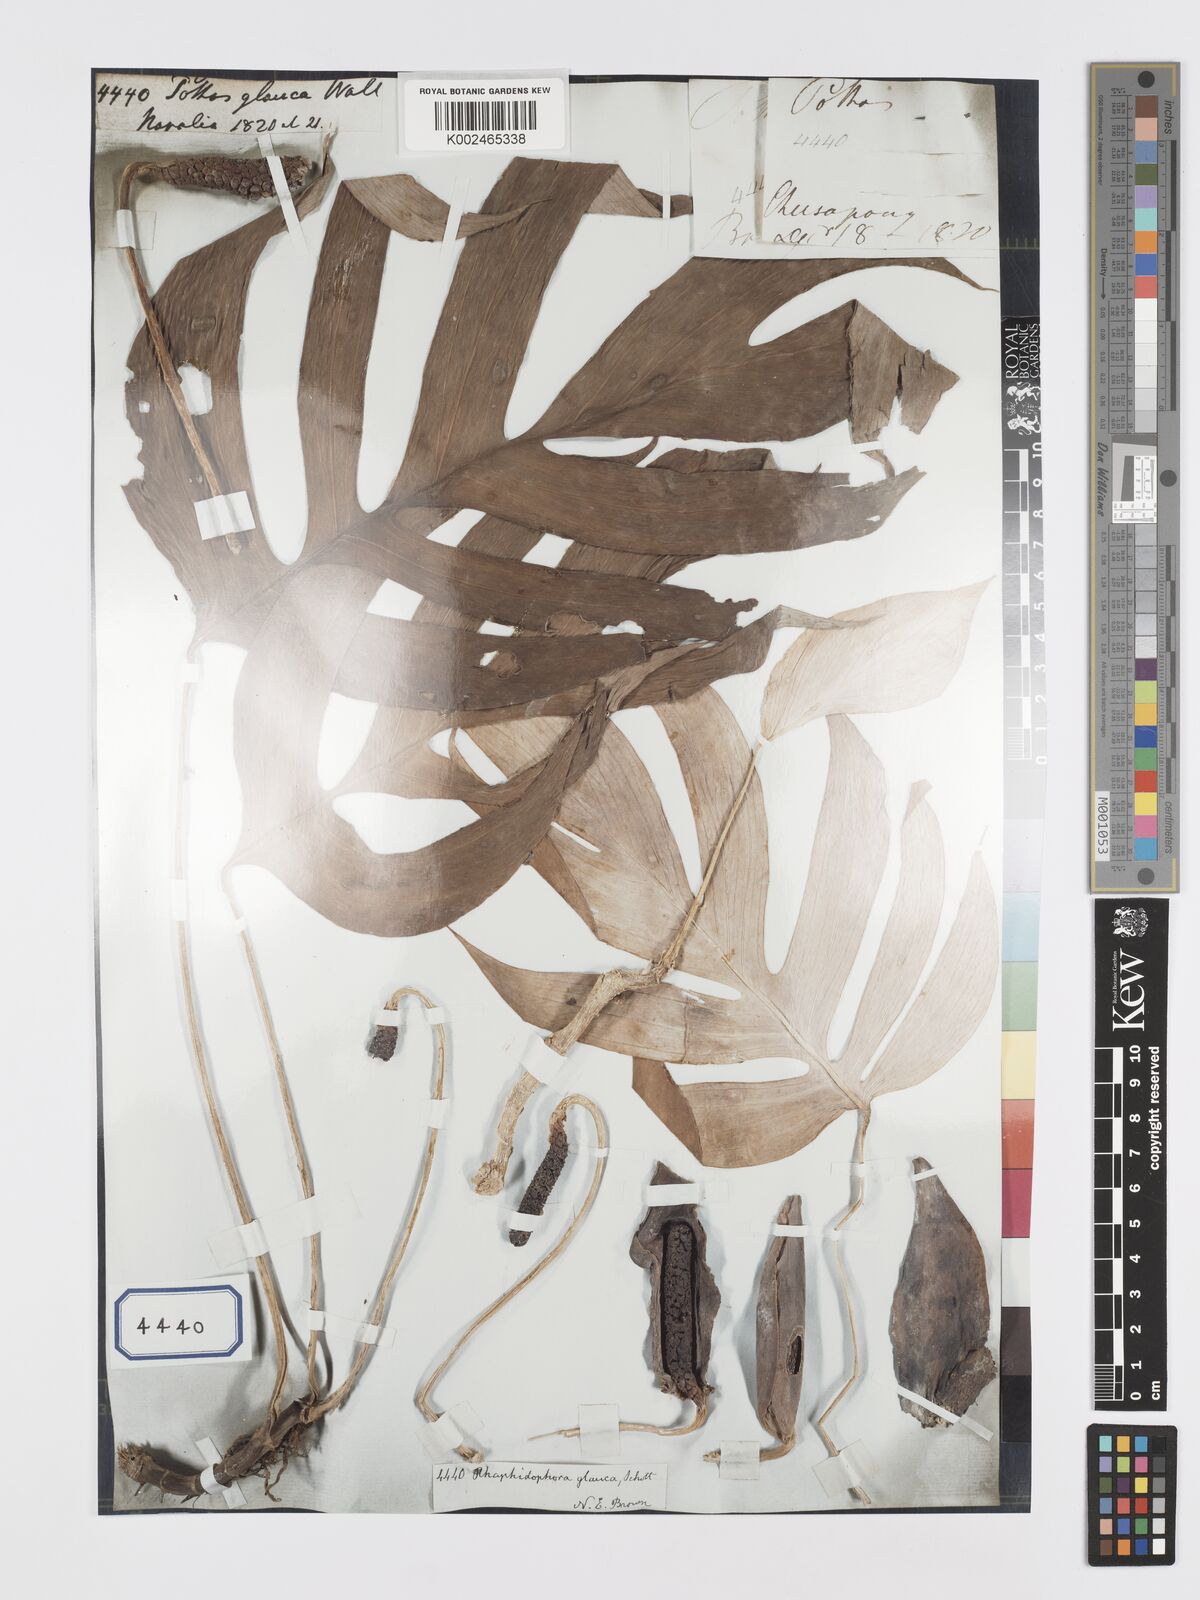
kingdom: Plantae
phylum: Tracheophyta
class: Liliopsida
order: Alismatales
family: Araceae
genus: Rhaphidophora
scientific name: Rhaphidophora glauca
